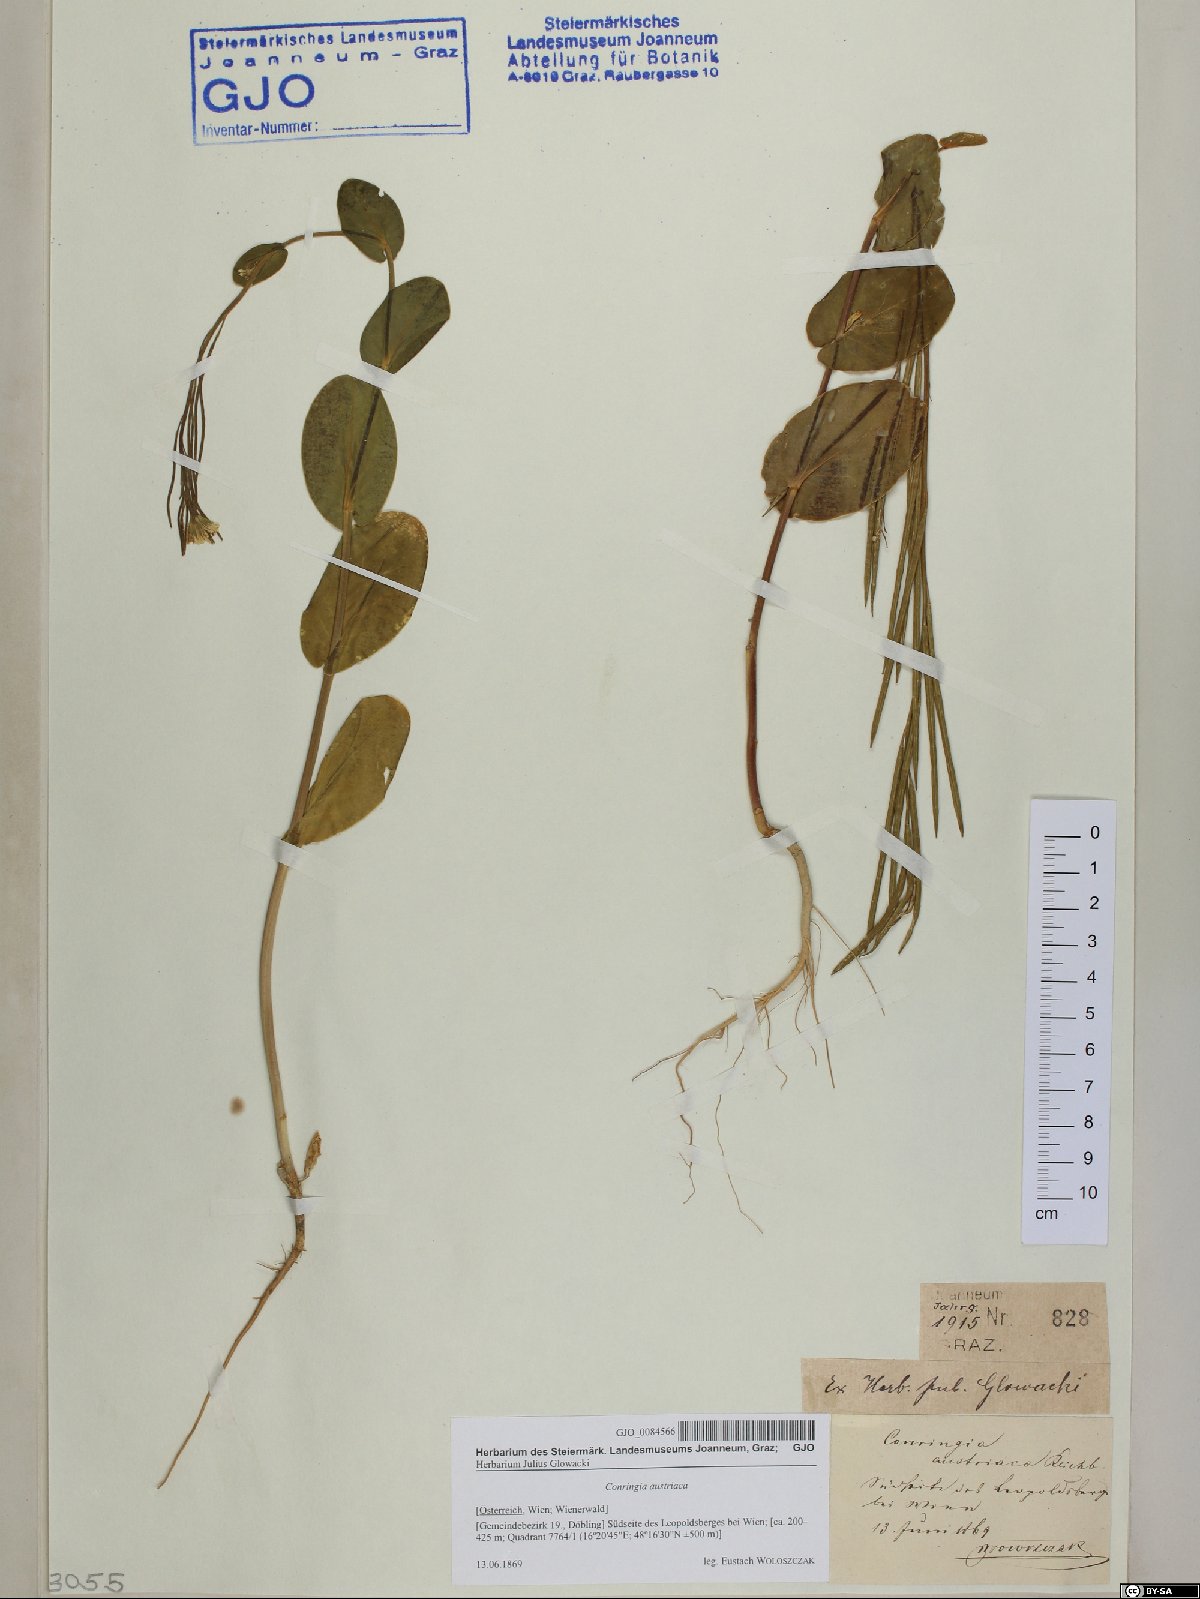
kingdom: Plantae
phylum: Tracheophyta
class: Magnoliopsida
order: Brassicales
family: Brassicaceae
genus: Conringia
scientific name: Conringia austriaca
